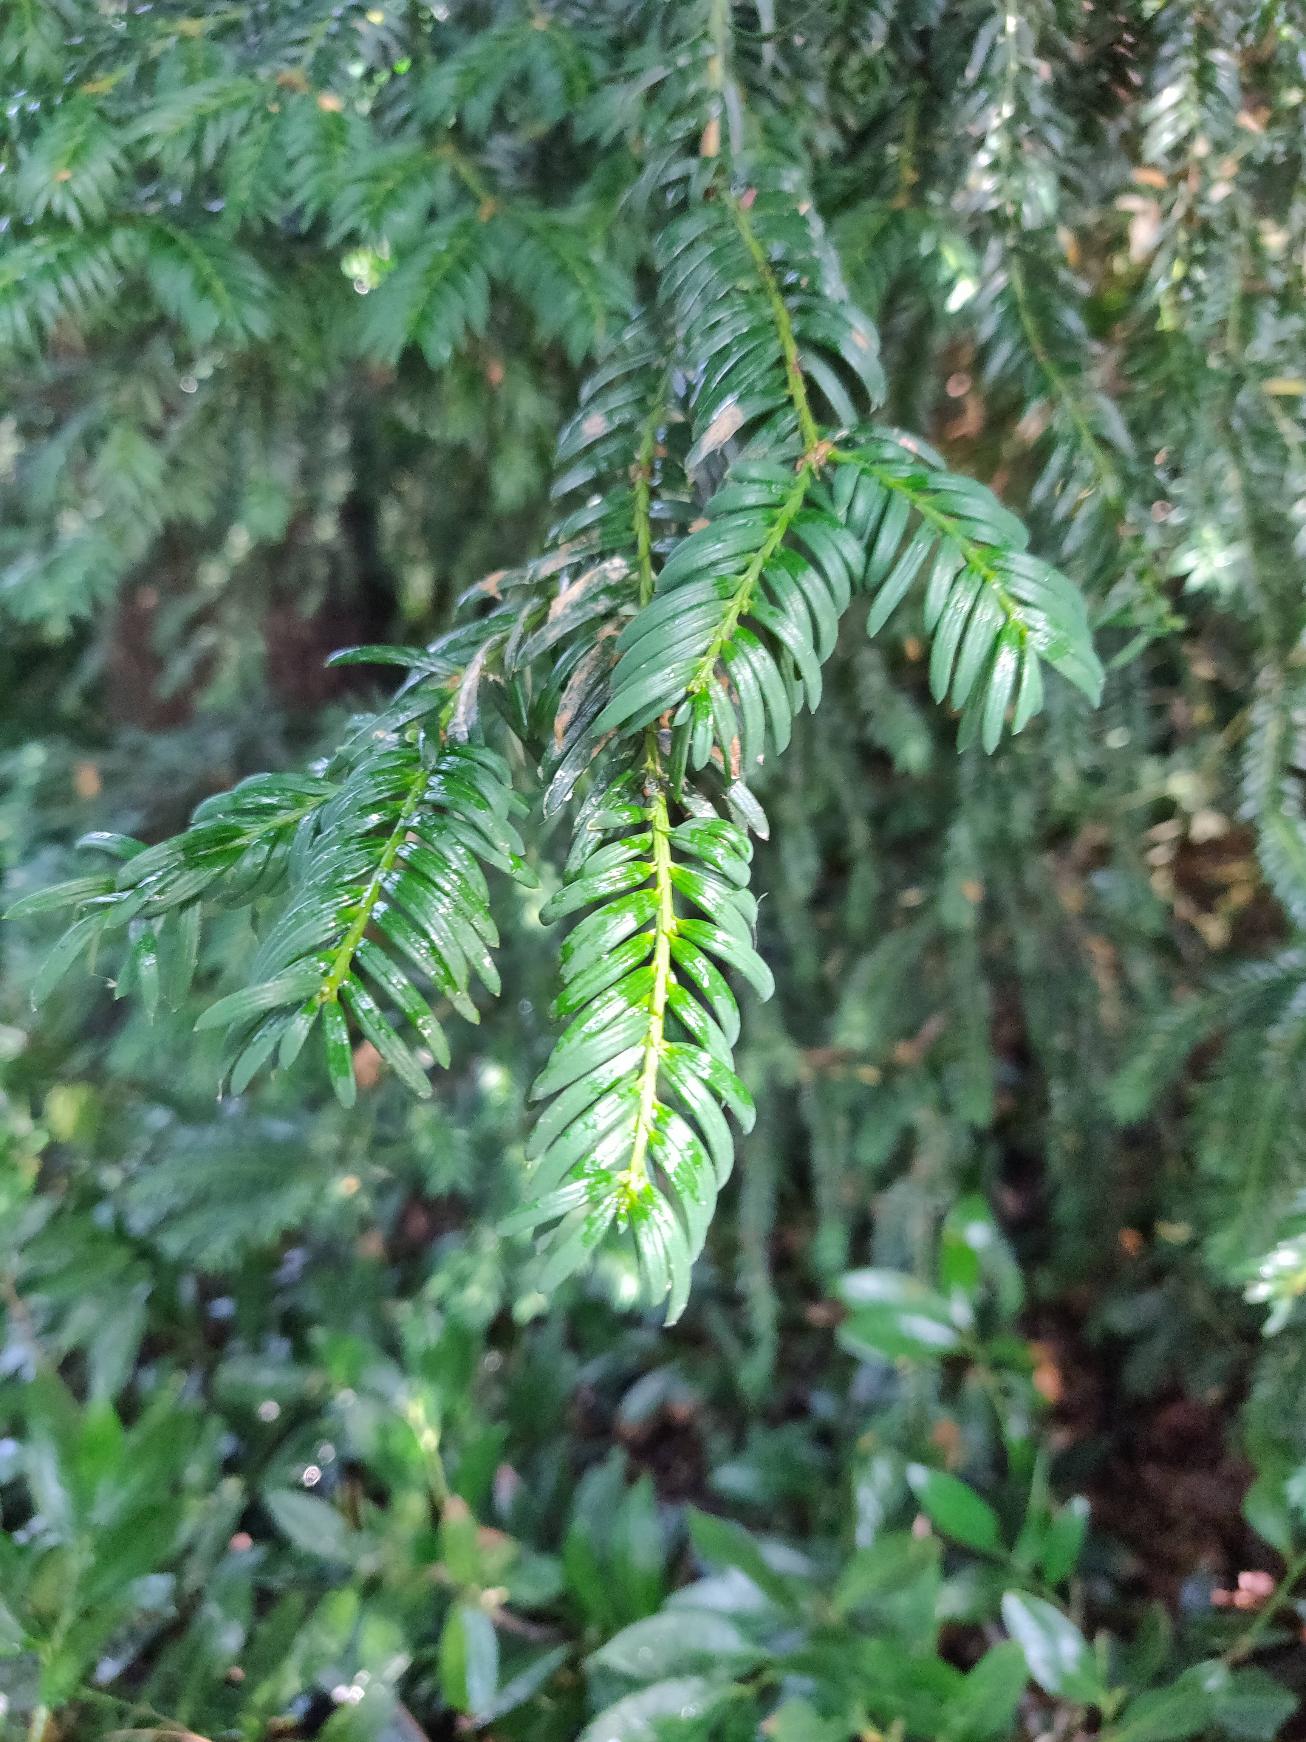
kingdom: Plantae
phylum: Tracheophyta
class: Pinopsida
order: Pinales
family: Taxaceae
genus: Taxus
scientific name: Taxus baccata
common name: Almindelig taks
